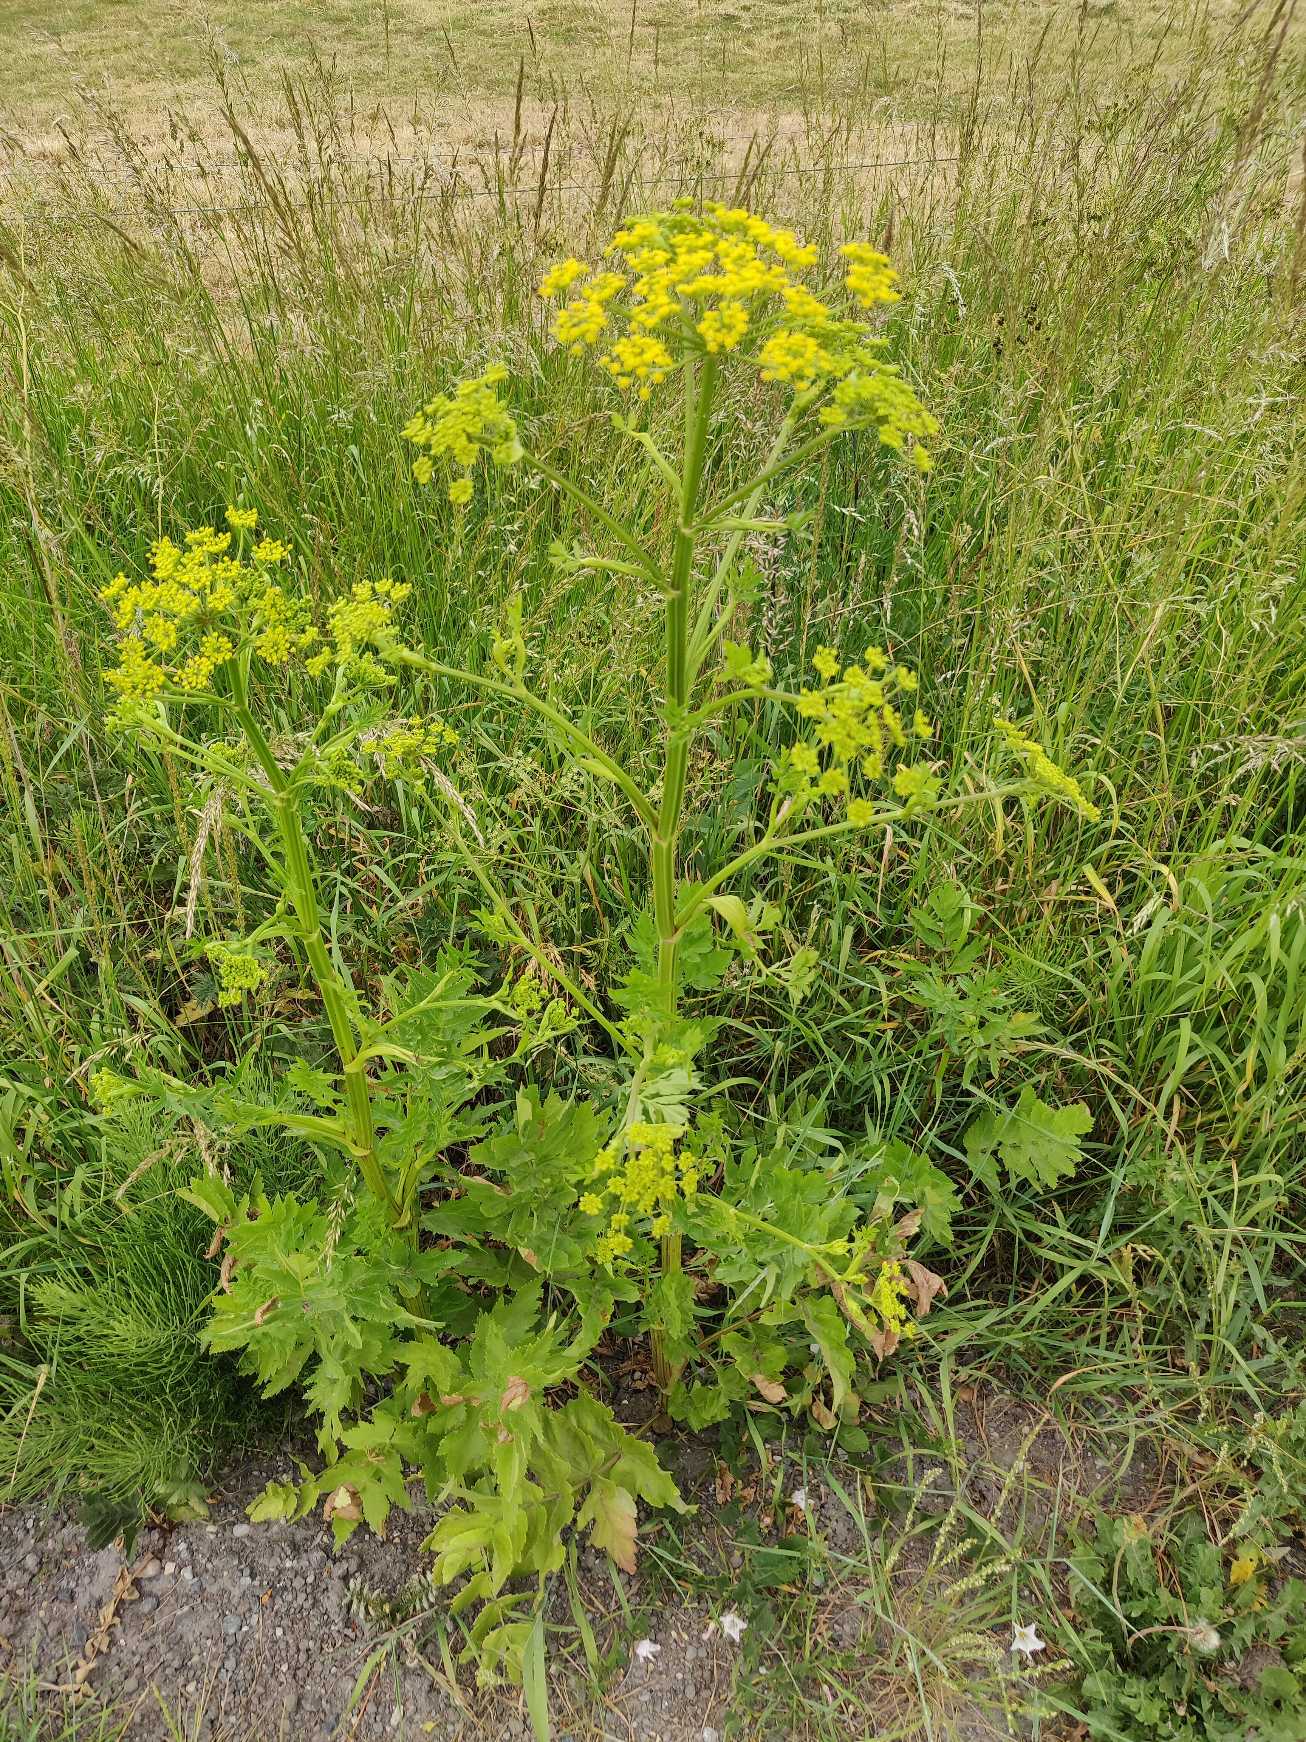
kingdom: Plantae
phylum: Tracheophyta
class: Magnoliopsida
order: Apiales
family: Apiaceae
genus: Pastinaca
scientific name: Pastinaca sativa
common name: Pastinak
